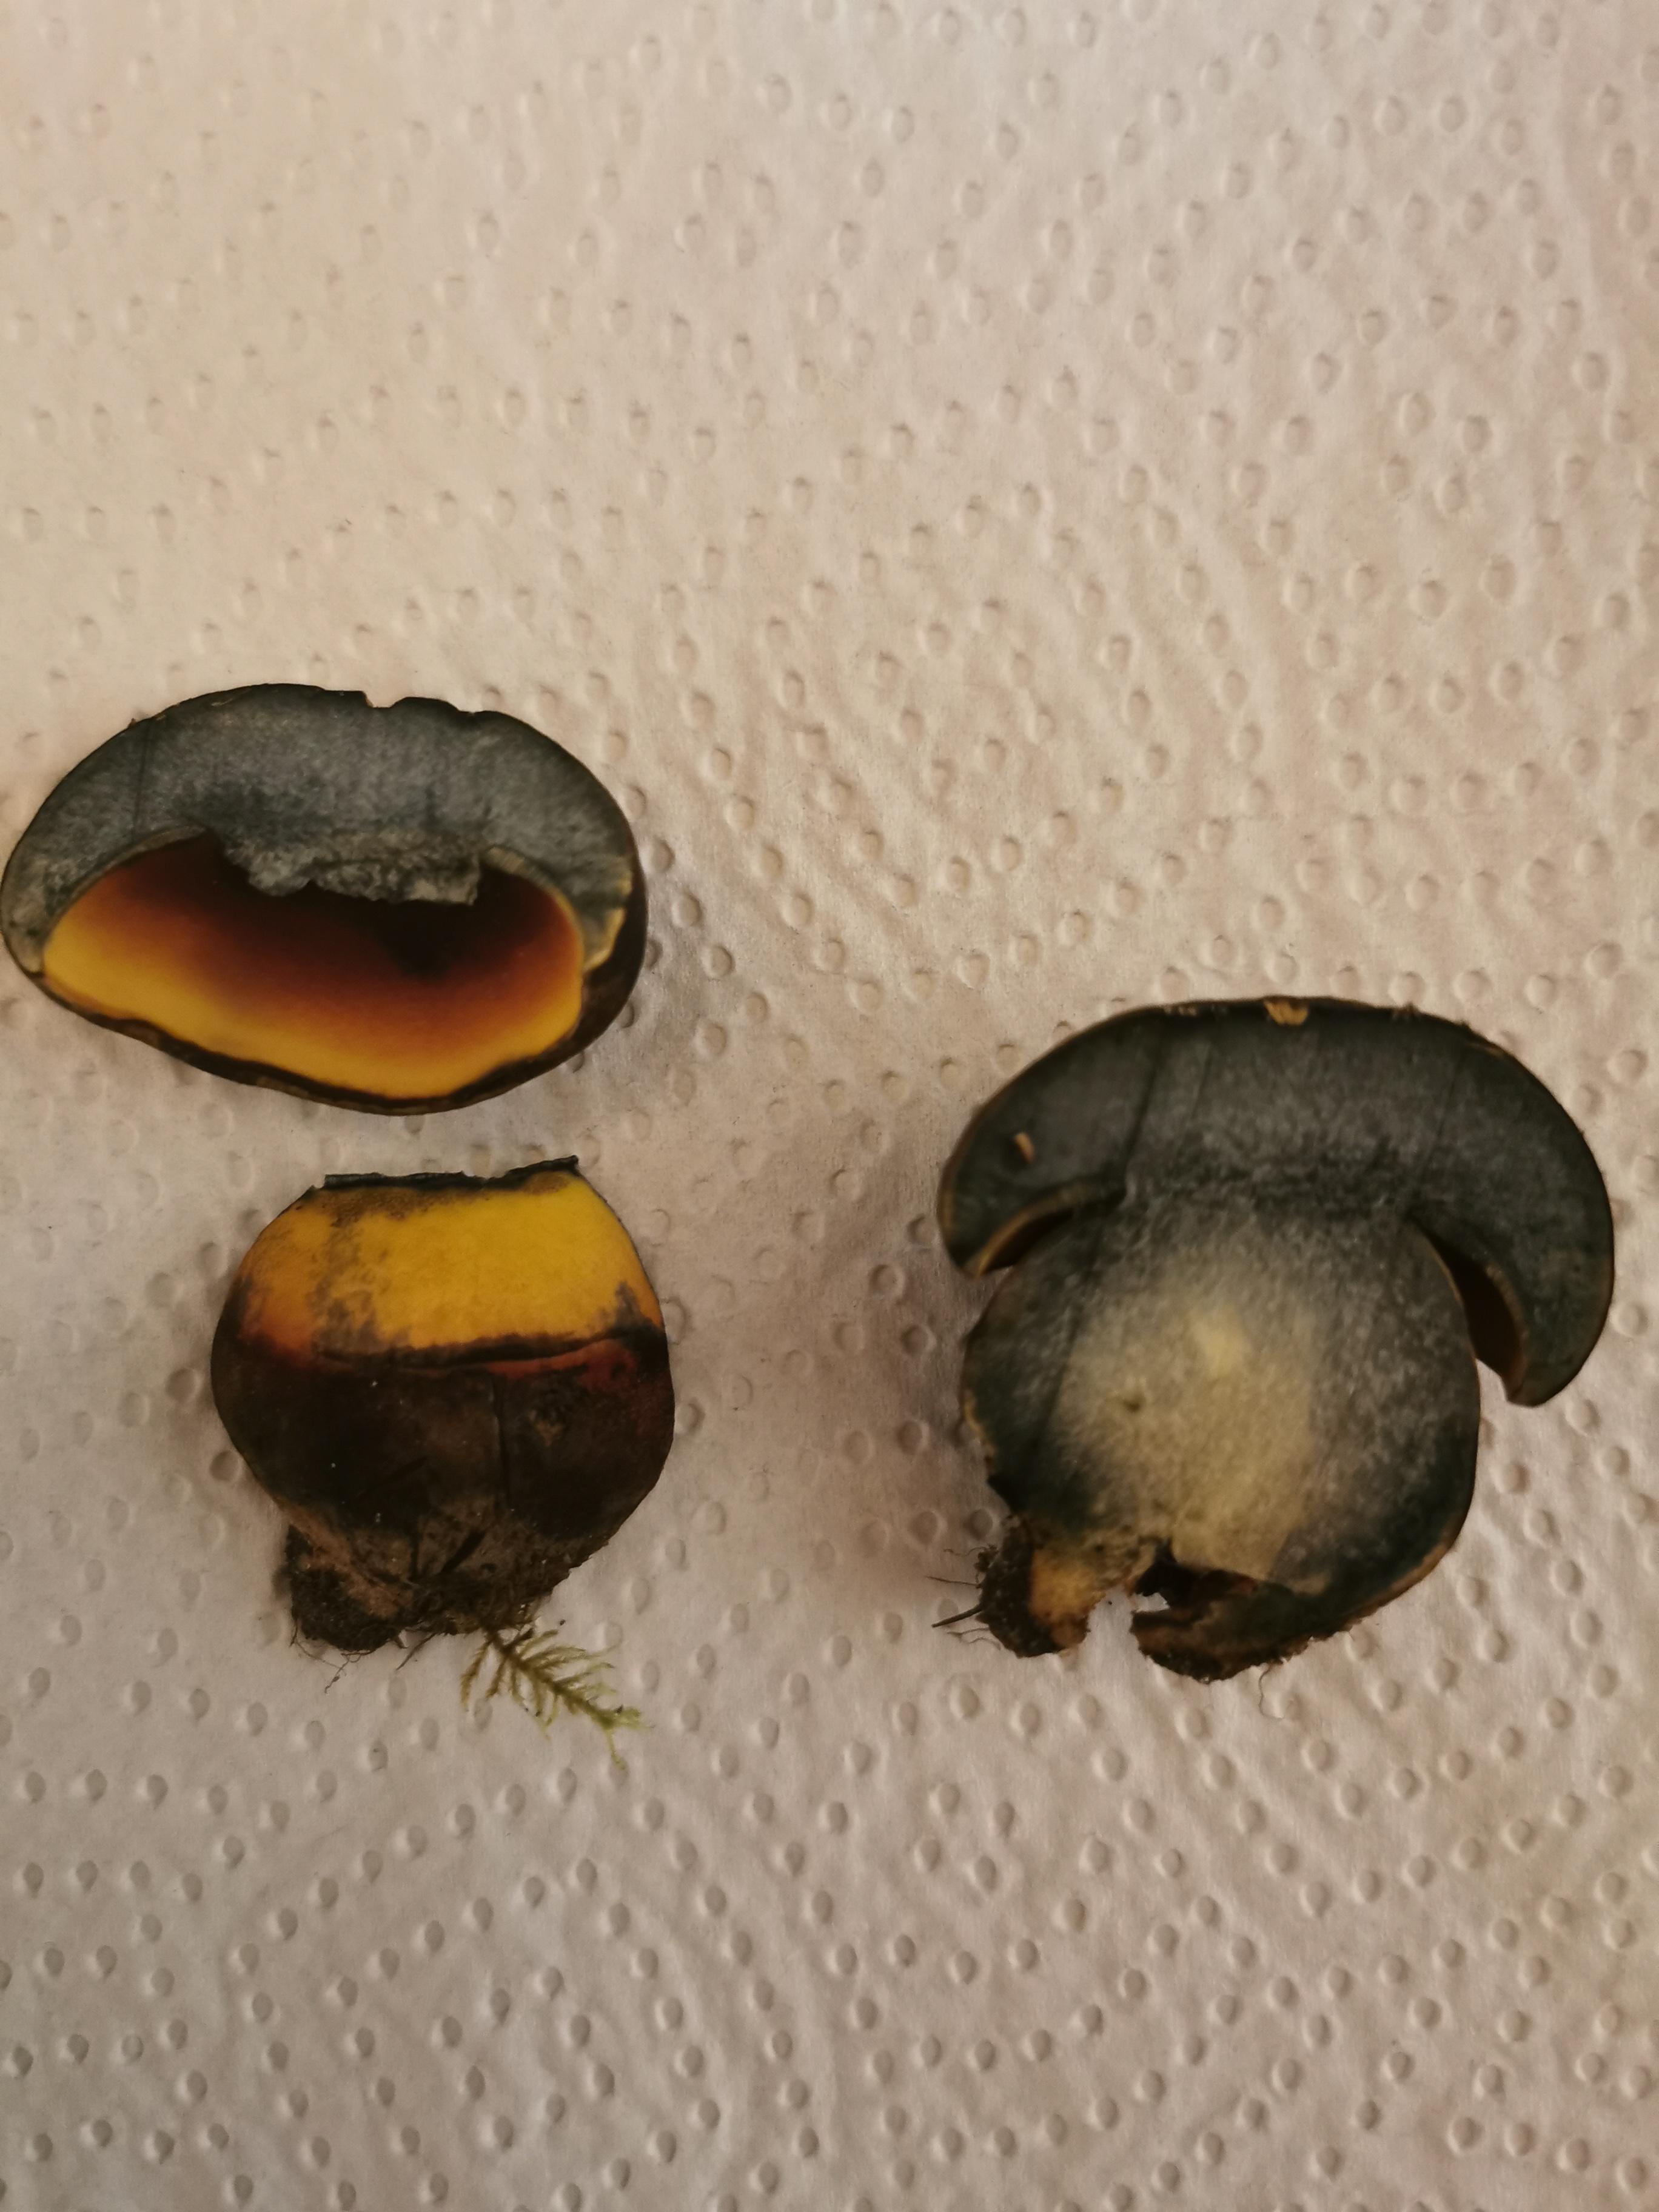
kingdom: Fungi
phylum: Basidiomycota
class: Agaricomycetes
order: Boletales
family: Boletaceae
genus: Neoboletus
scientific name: Neoboletus erythropus
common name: punktstokket indigorørhat
